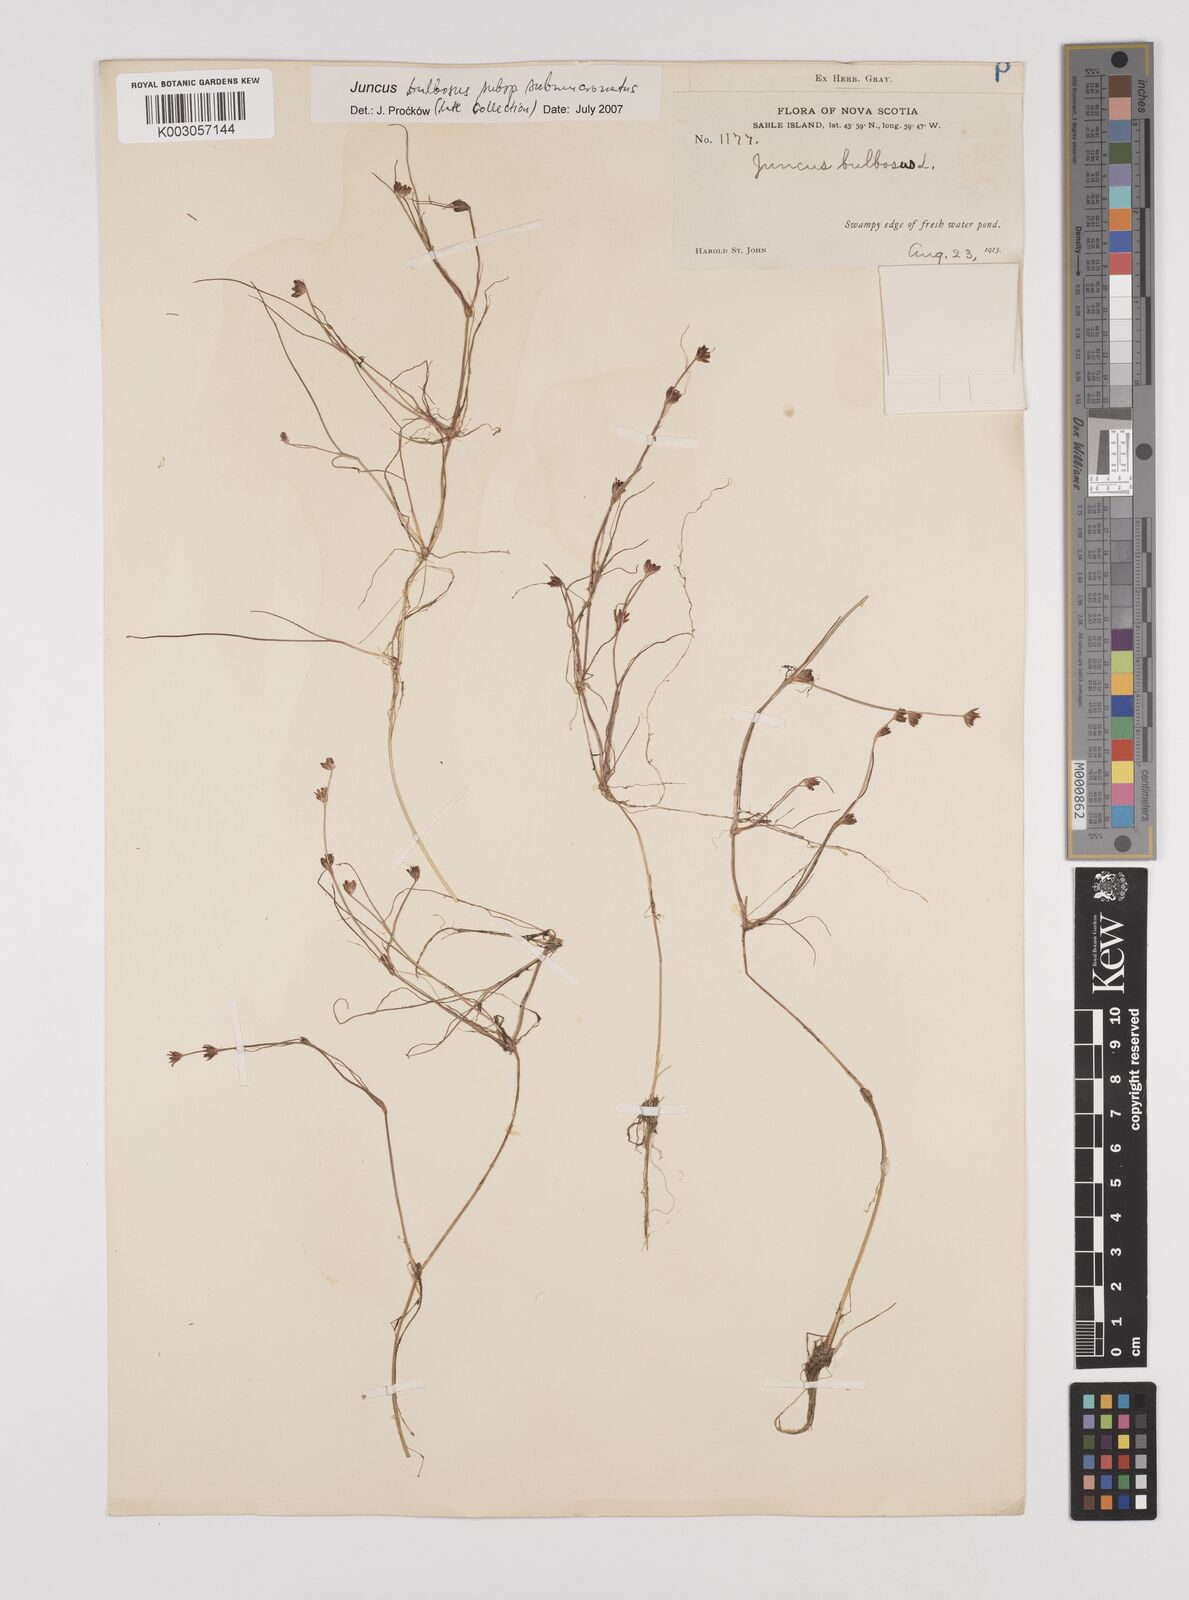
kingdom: Plantae
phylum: Tracheophyta
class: Liliopsida
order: Poales
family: Juncaceae
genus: Juncus
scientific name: Juncus bulbosus
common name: Bulbous rush
